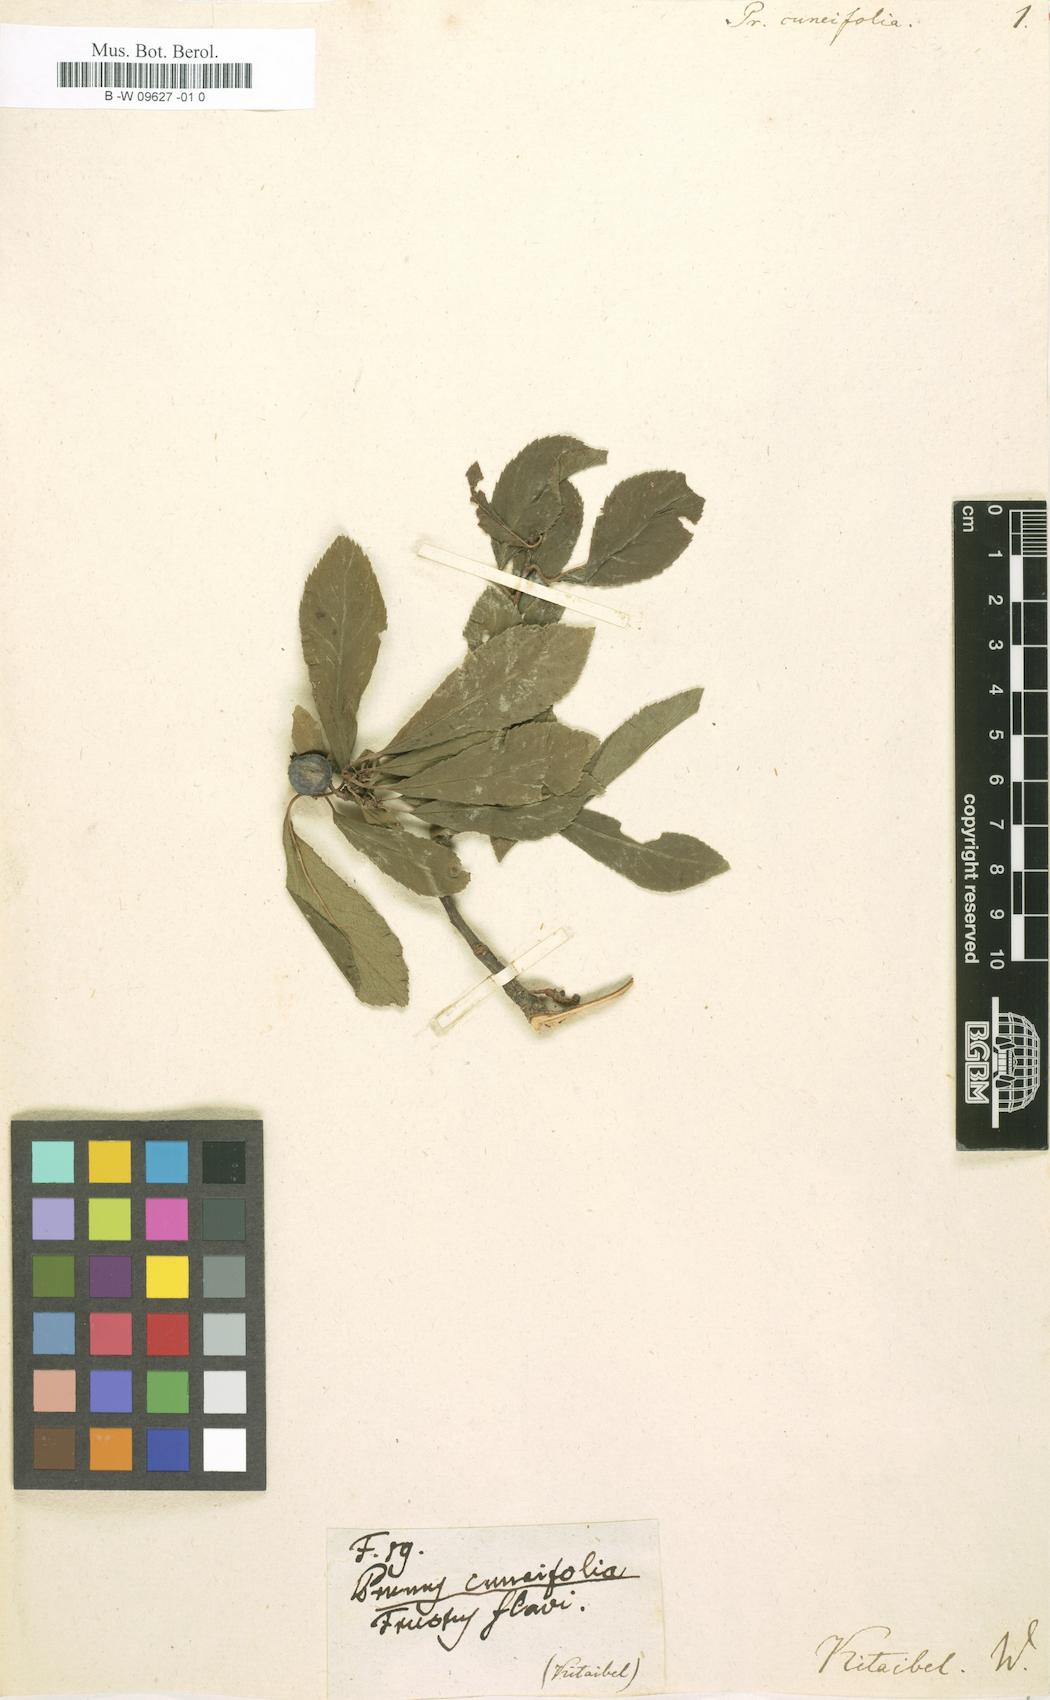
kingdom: Plantae
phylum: Tracheophyta
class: Magnoliopsida
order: Rosales
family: Rosaceae
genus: Prunus
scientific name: Prunus cuneifolia
